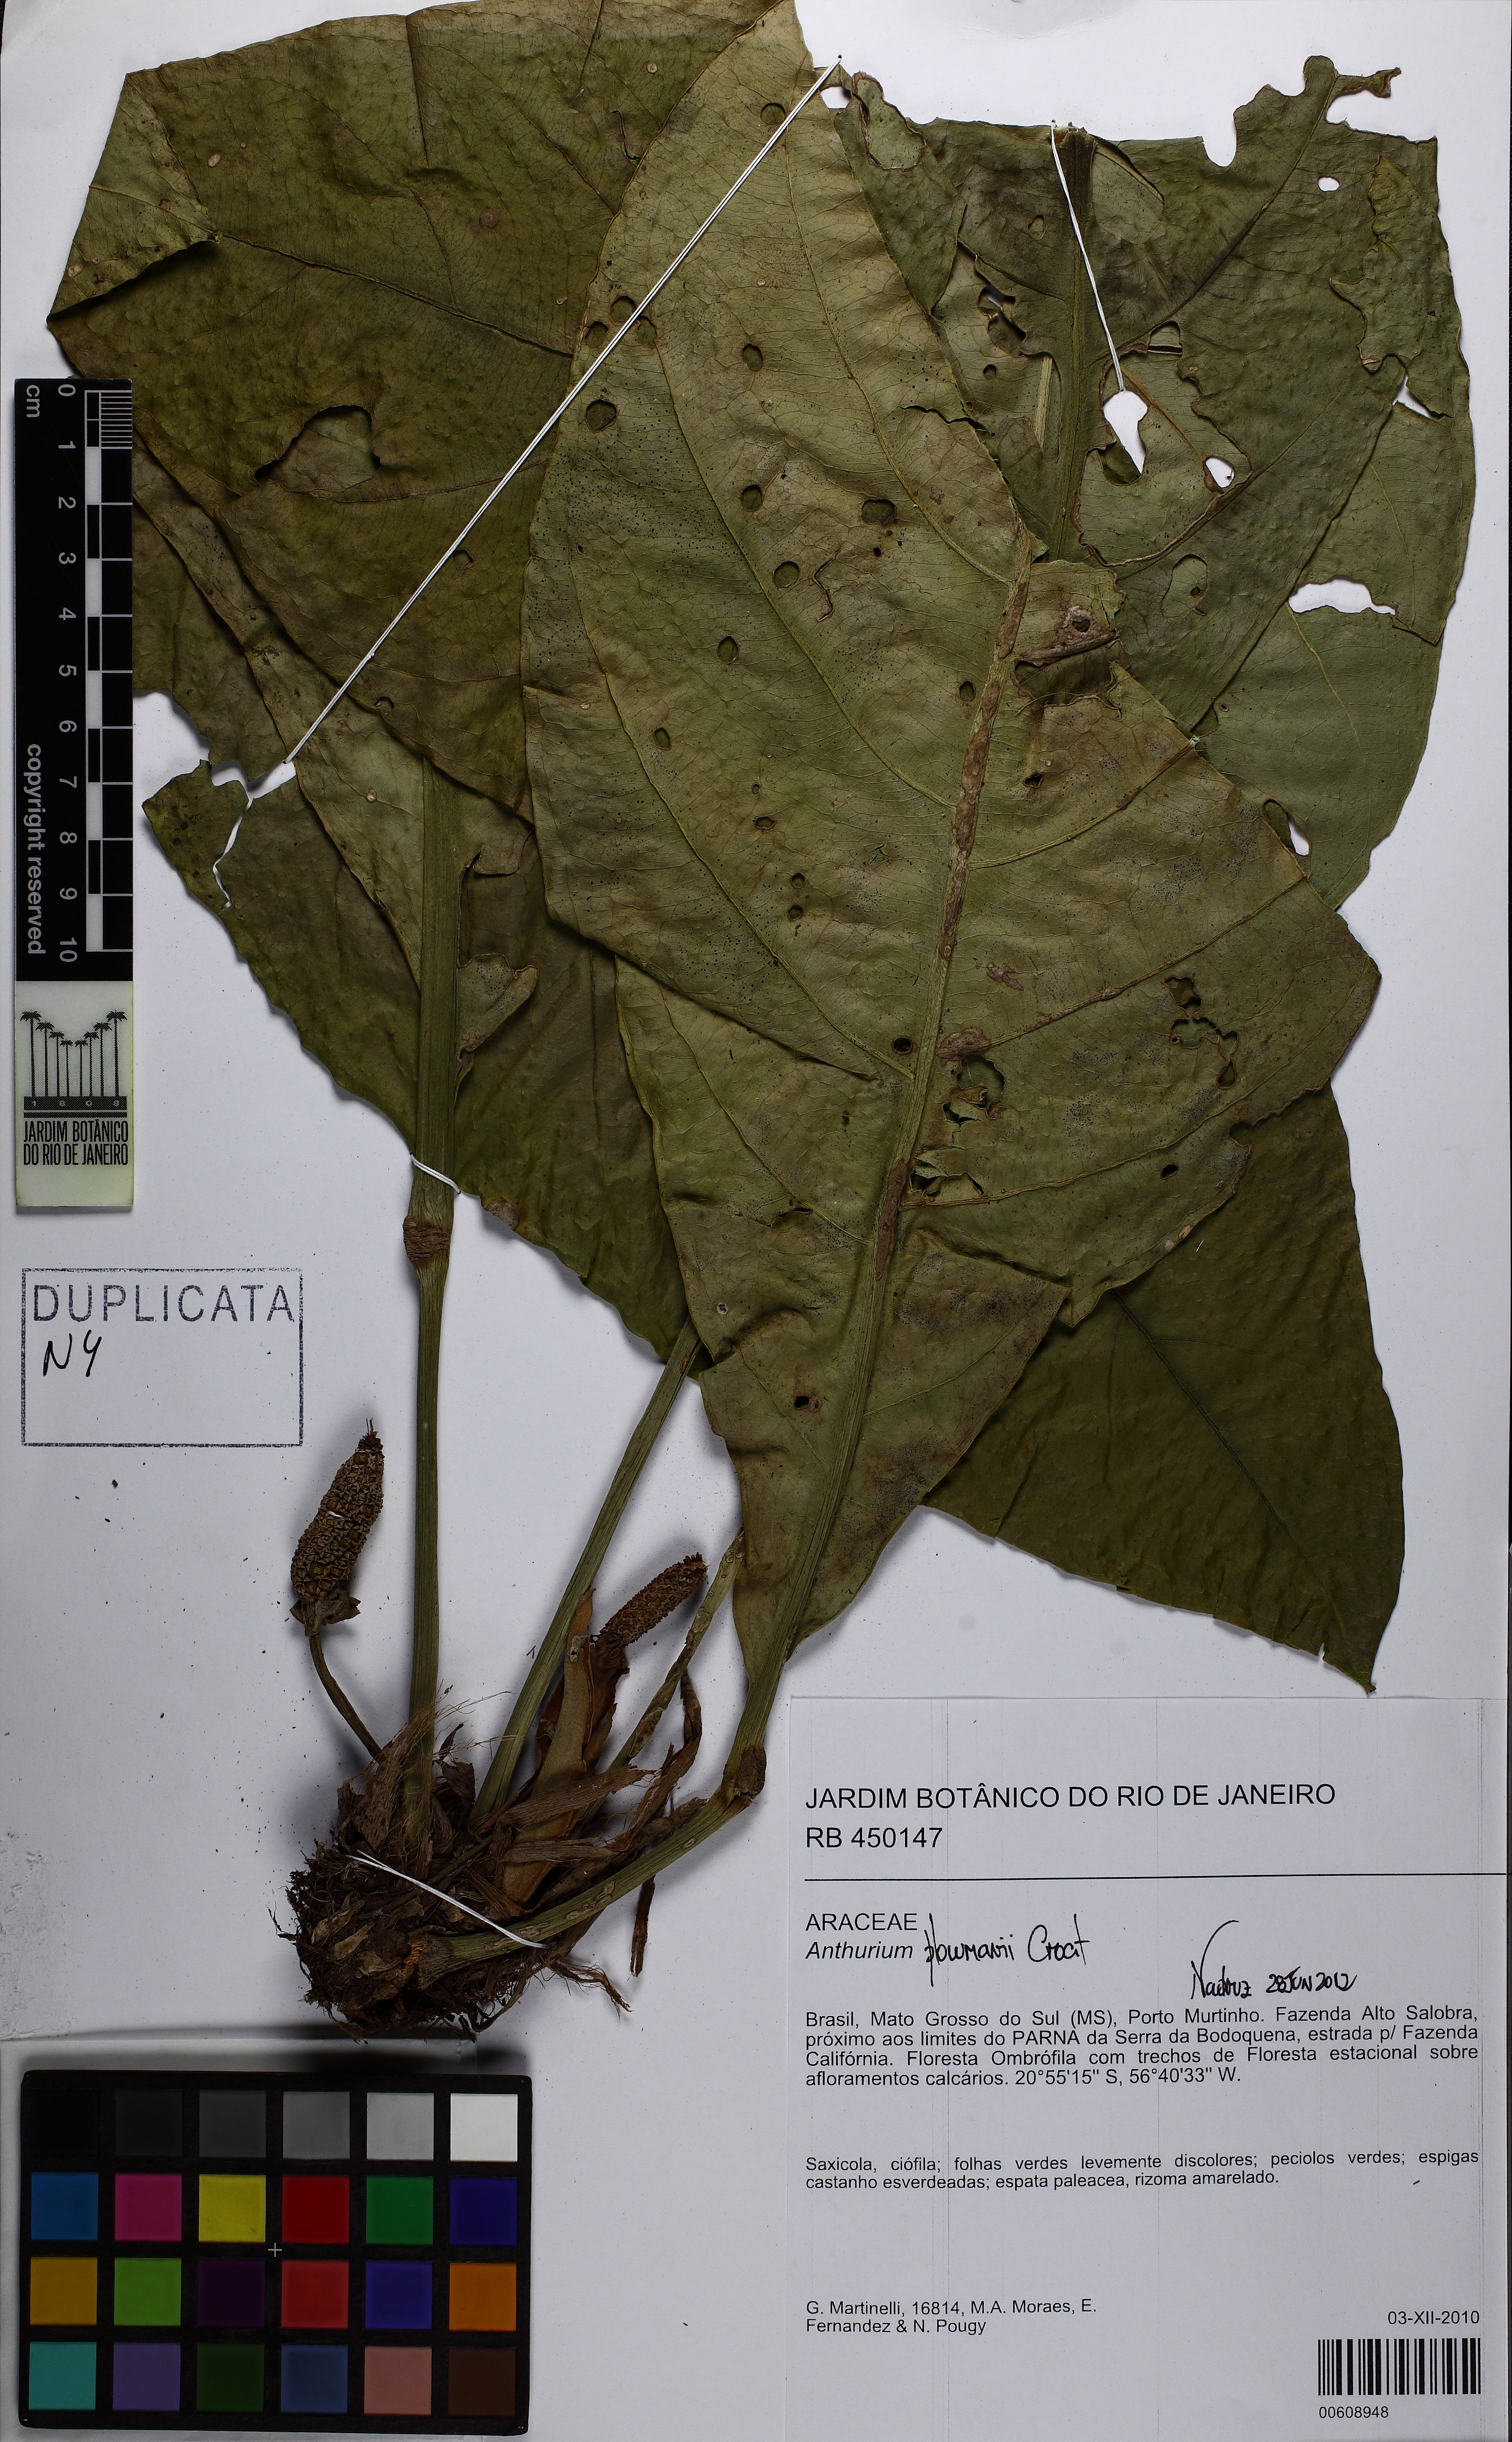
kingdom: Plantae
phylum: Tracheophyta
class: Liliopsida
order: Alismatales
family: Araceae
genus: Anthurium
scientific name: Anthurium plowmanii
